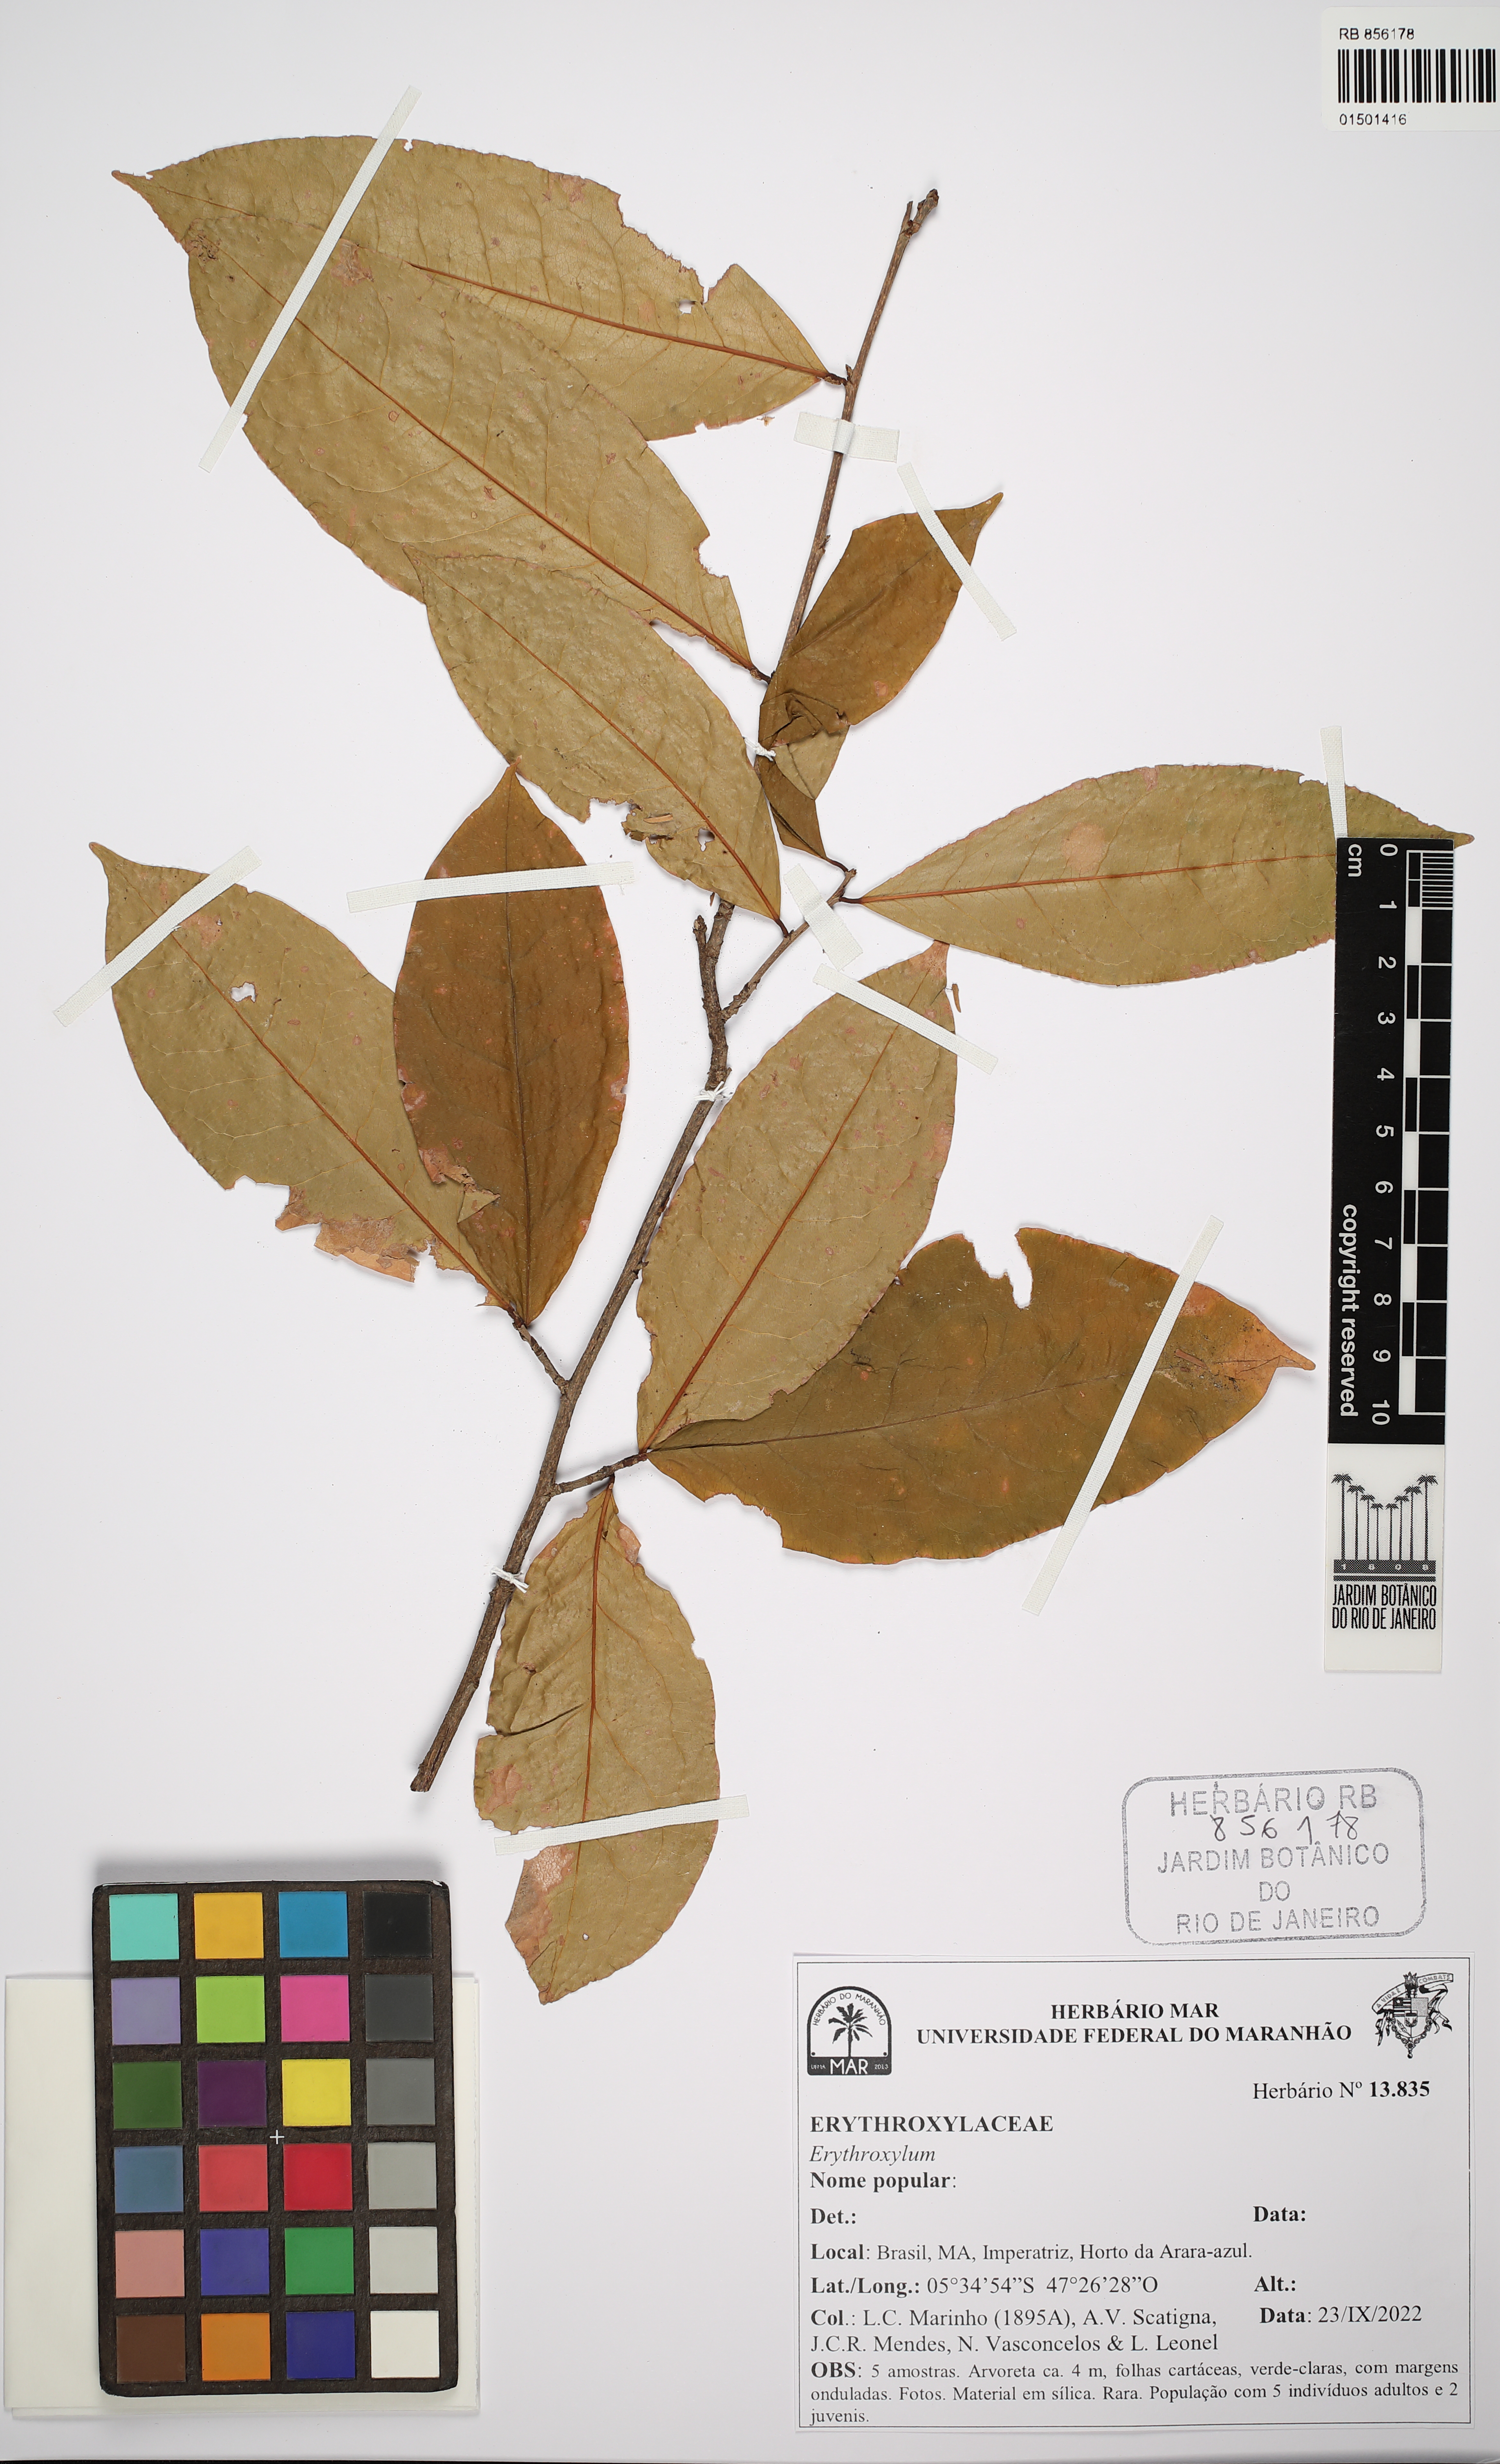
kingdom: Plantae
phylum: Tracheophyta
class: Magnoliopsida
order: Malpighiales
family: Erythroxylaceae
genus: Erythroxylum
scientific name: Erythroxylum
